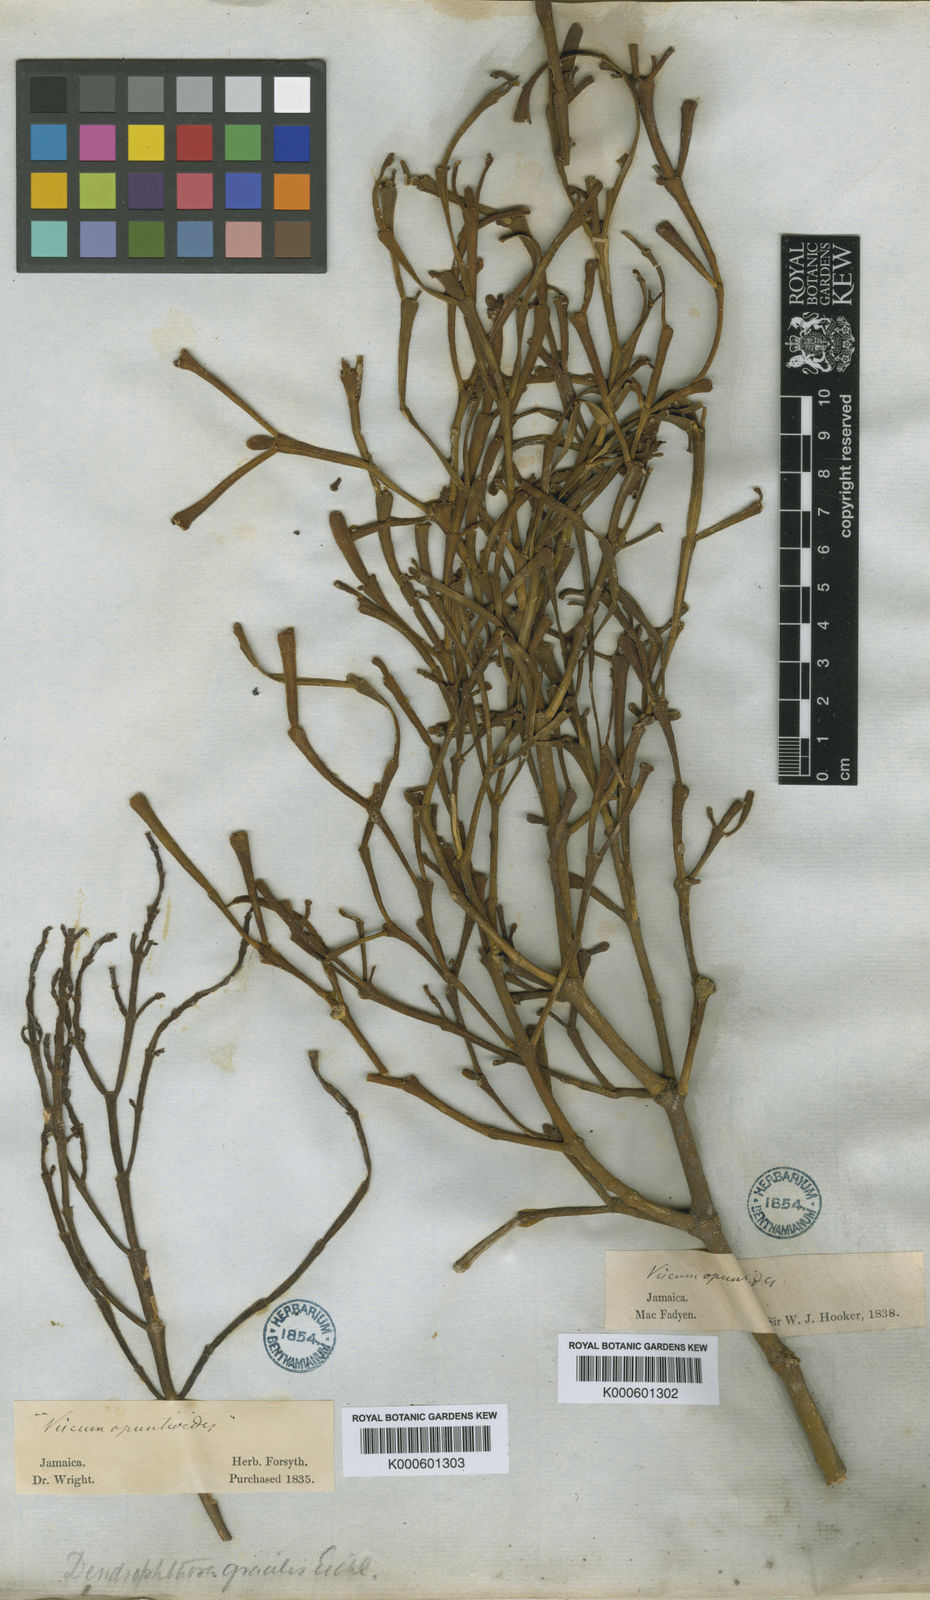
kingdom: Plantae
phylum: Tracheophyta
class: Magnoliopsida
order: Santalales
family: Viscaceae
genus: Dendrophthora
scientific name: Dendrophthora flagelliformis
